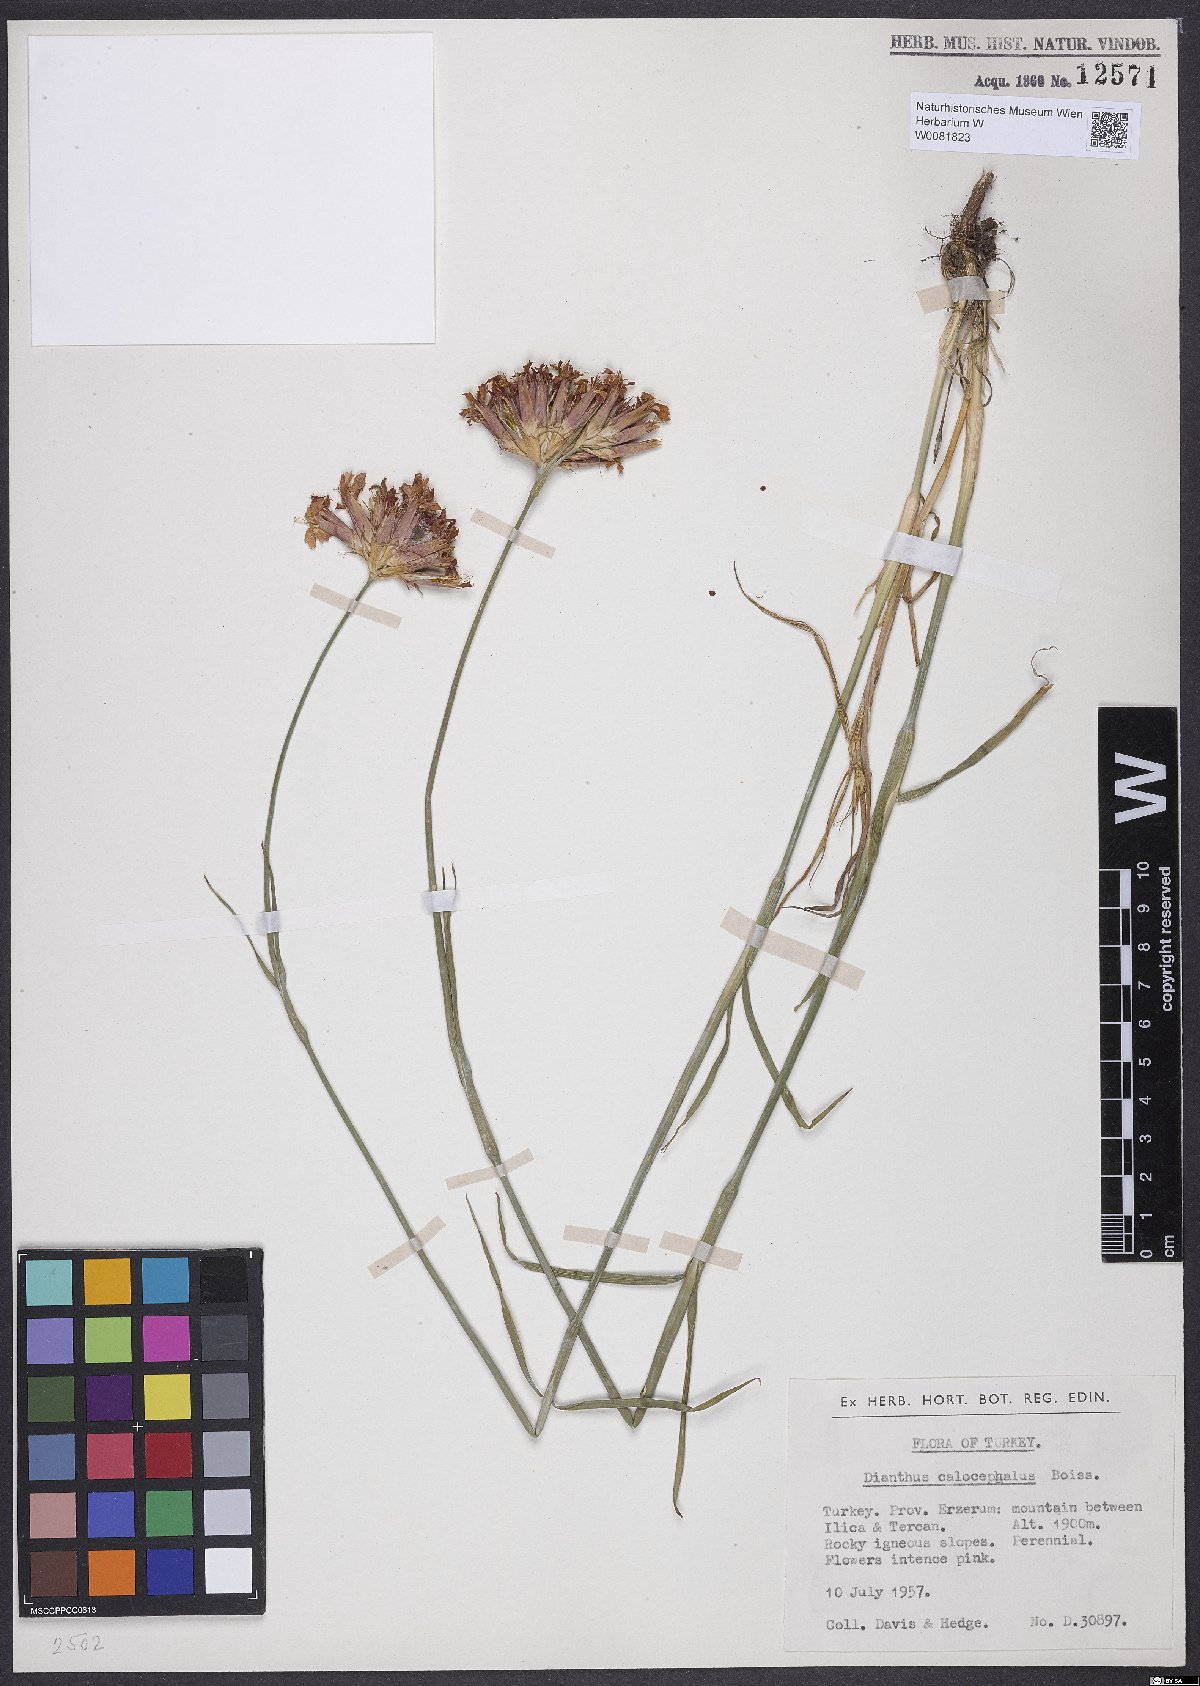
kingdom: Plantae
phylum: Tracheophyta
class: Magnoliopsida
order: Caryophyllales
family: Caryophyllaceae
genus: Dianthus
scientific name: Dianthus cruentus
